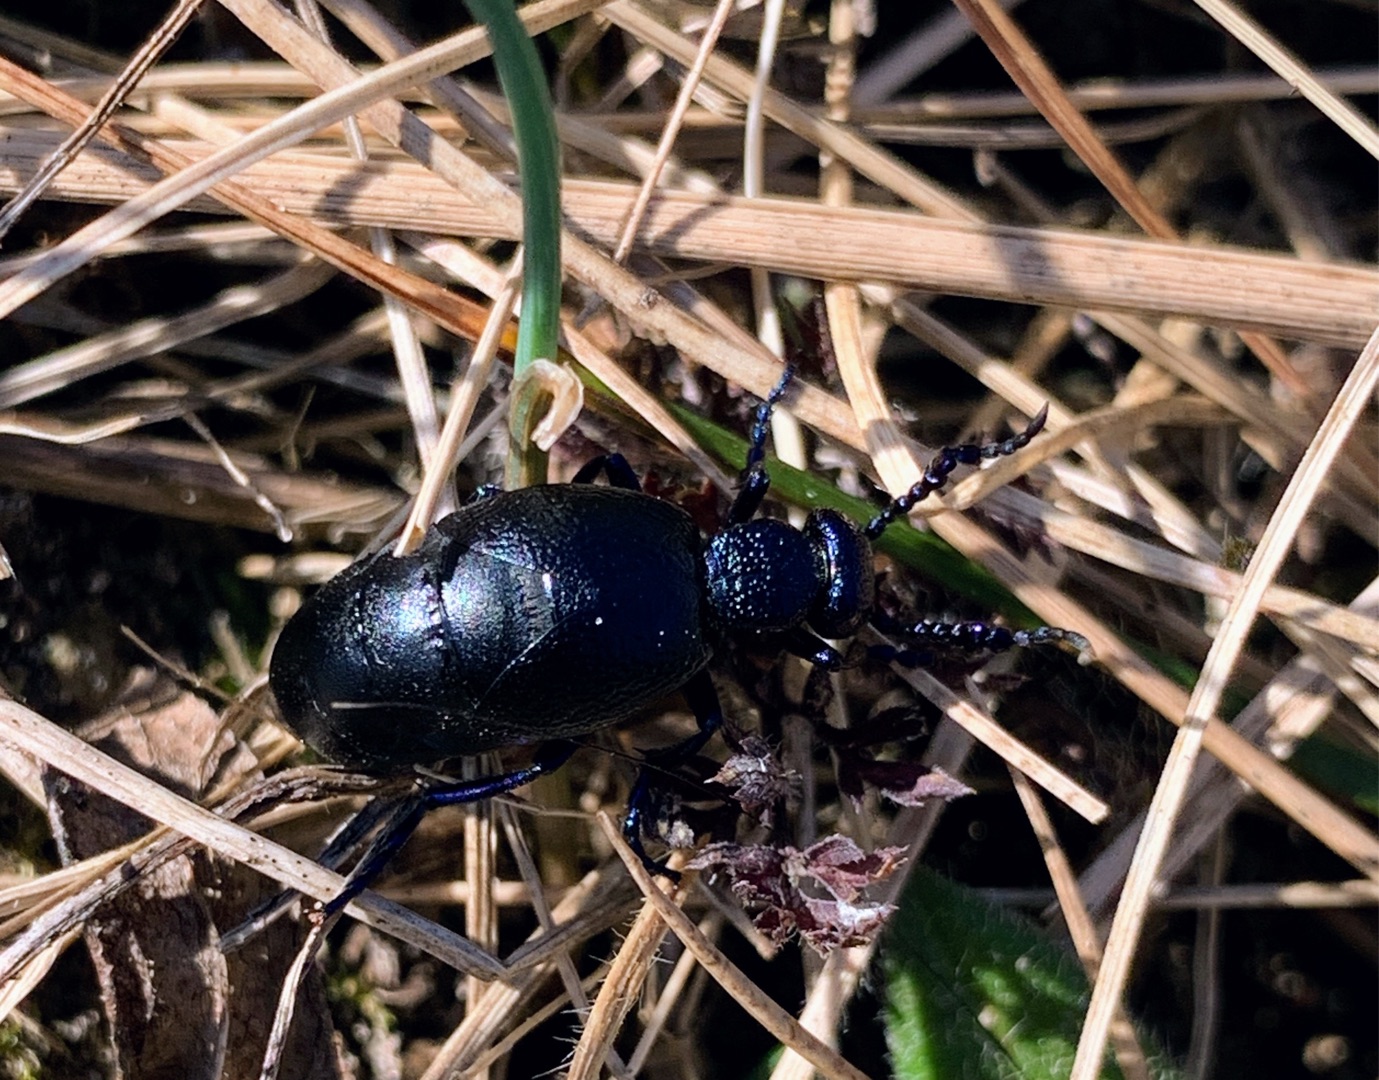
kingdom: Animalia
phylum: Arthropoda
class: Insecta
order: Coleoptera
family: Meloidae
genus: Meloe
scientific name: Meloe proscarabaeus
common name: Sort oliebille
